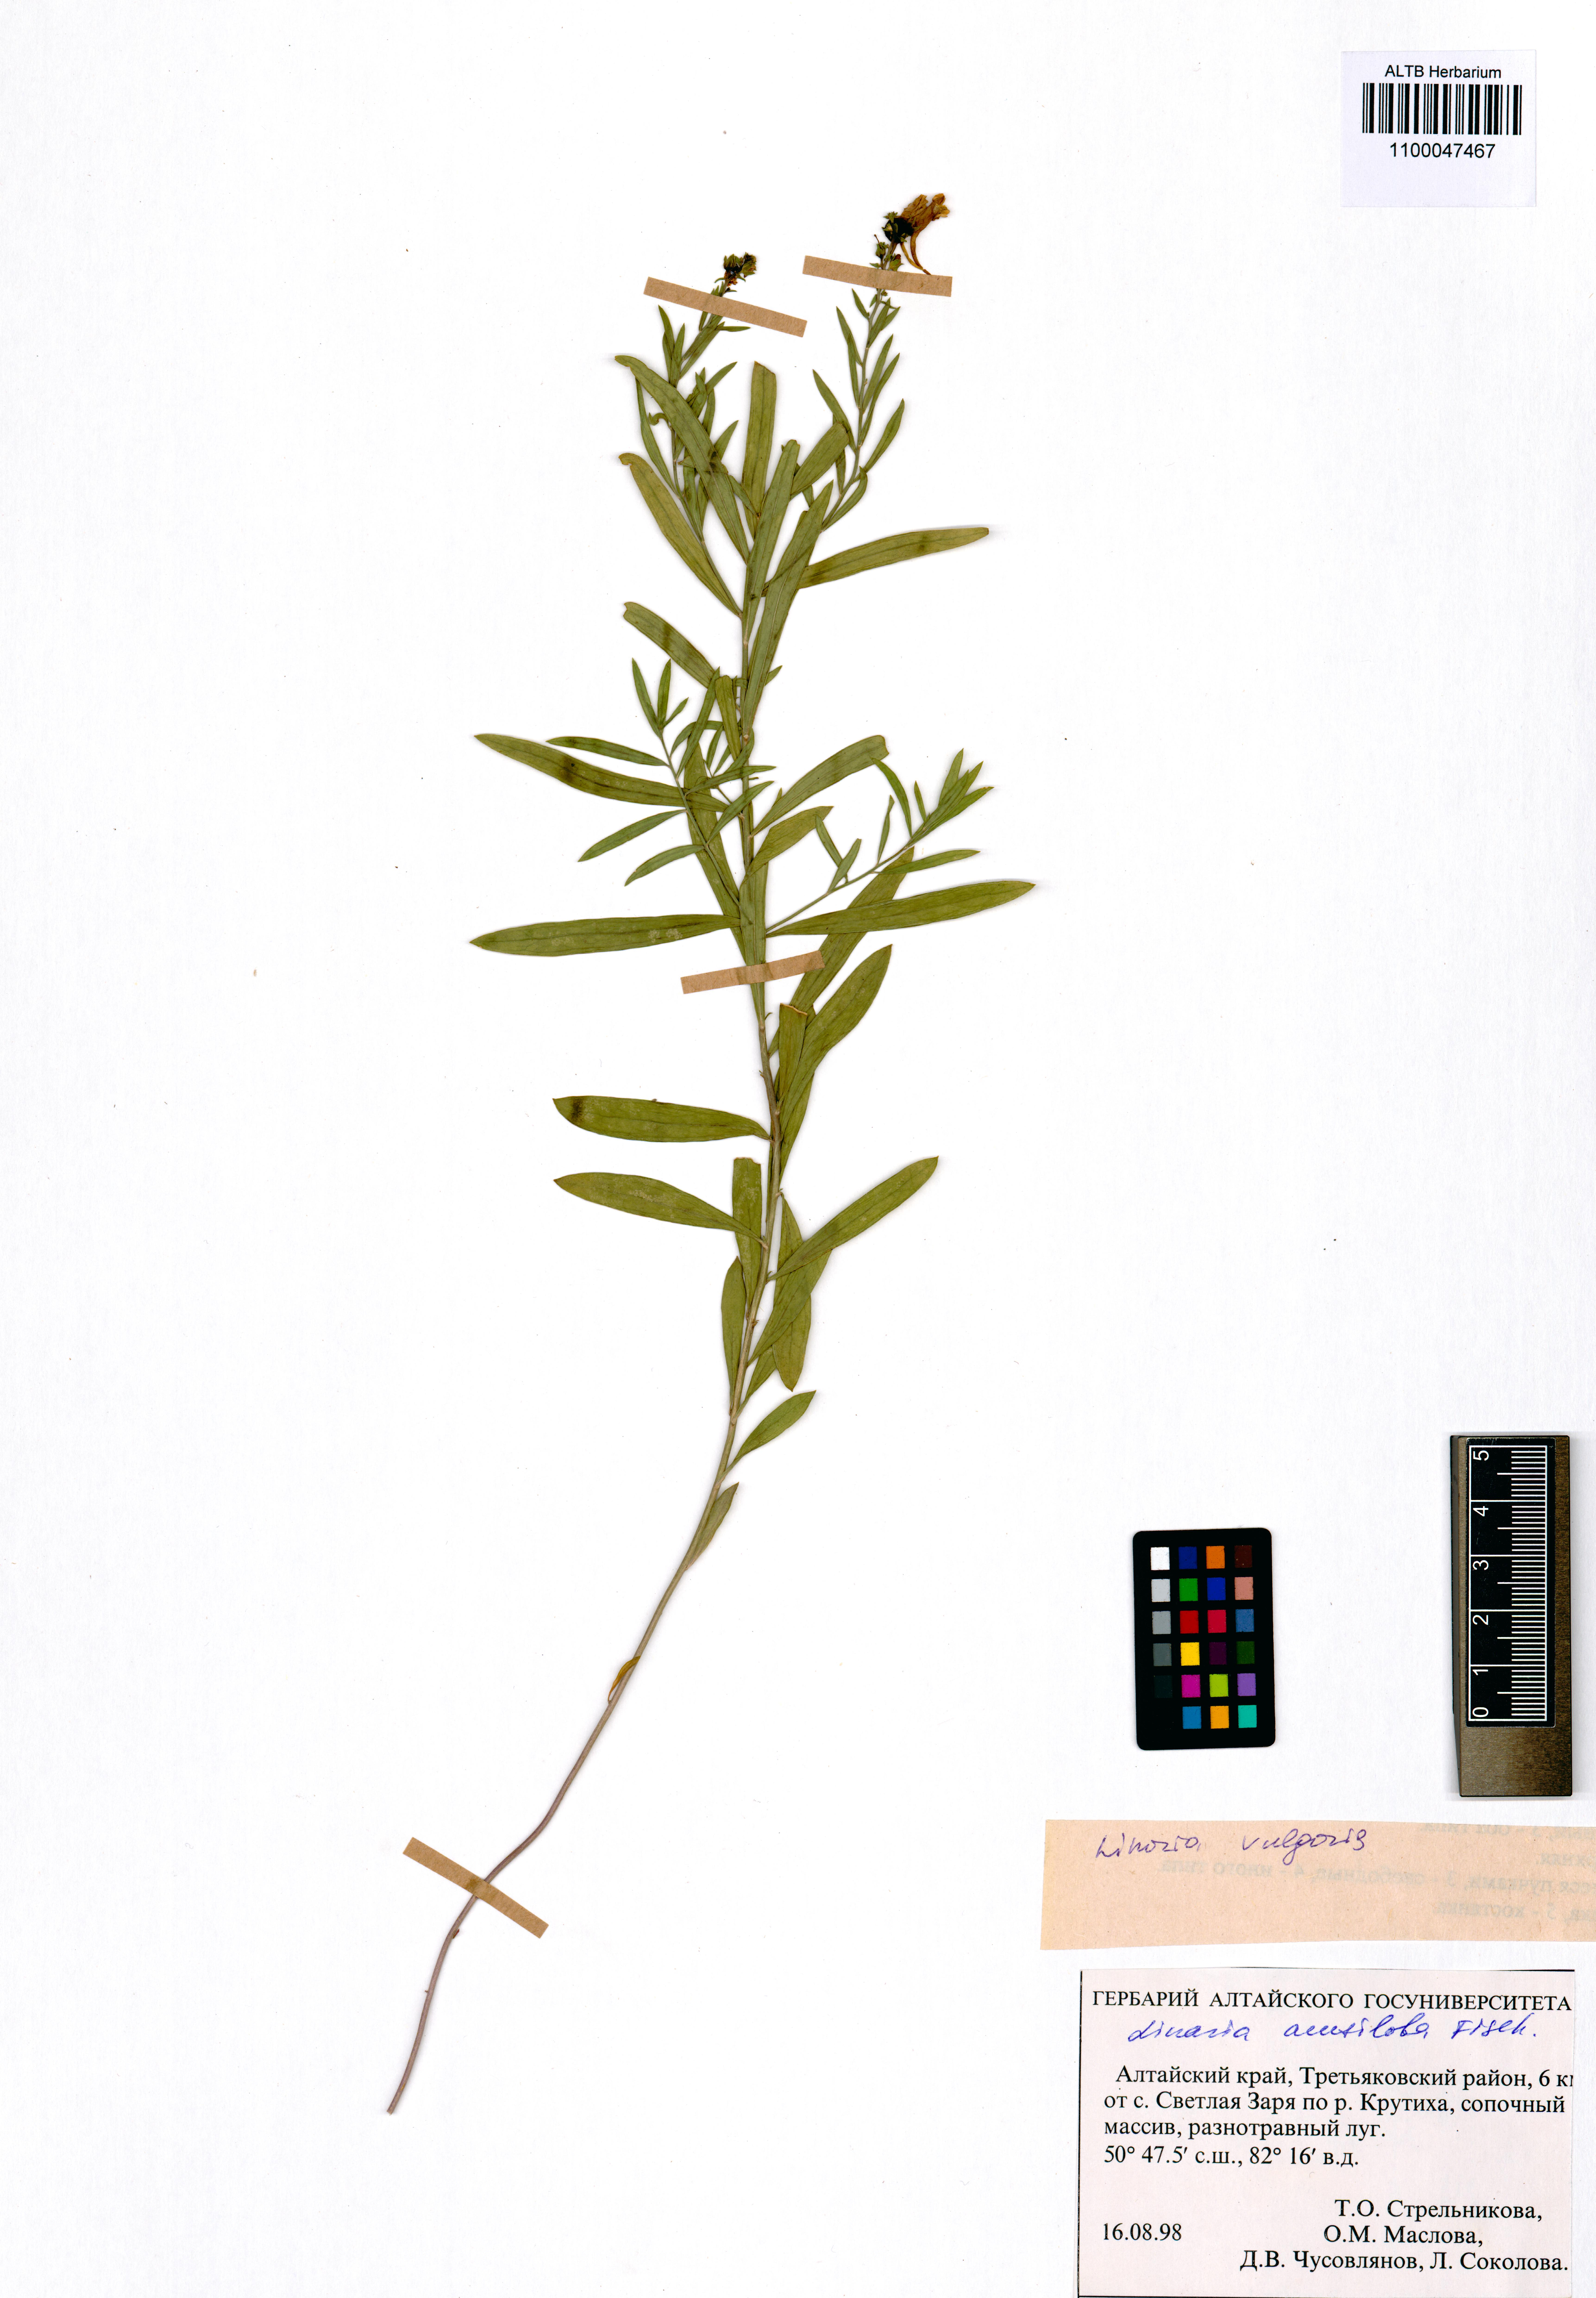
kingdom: Plantae
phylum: Tracheophyta
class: Magnoliopsida
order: Lamiales
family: Plantaginaceae
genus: Linaria
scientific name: Linaria vulgaris
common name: Butter and eggs
